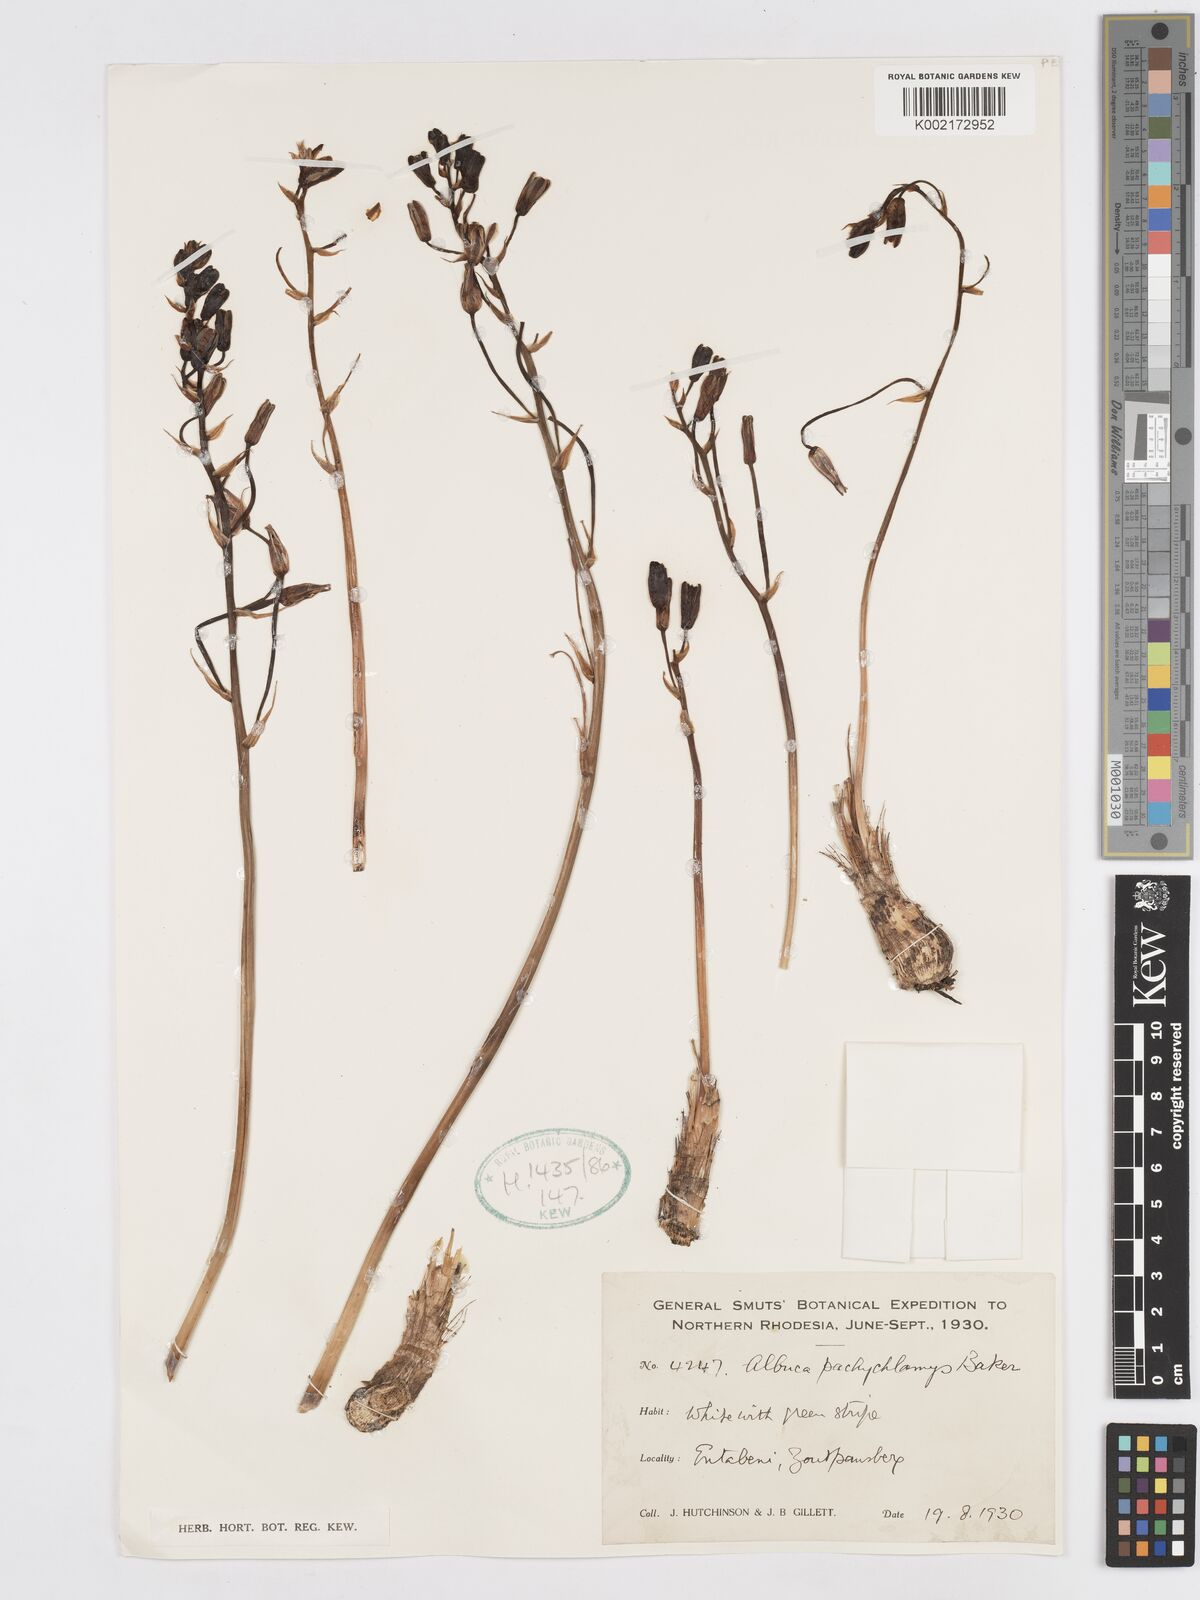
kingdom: Plantae
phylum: Tracheophyta
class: Liliopsida
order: Asparagales
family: Asparagaceae
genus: Albuca
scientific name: Albuca setosa
